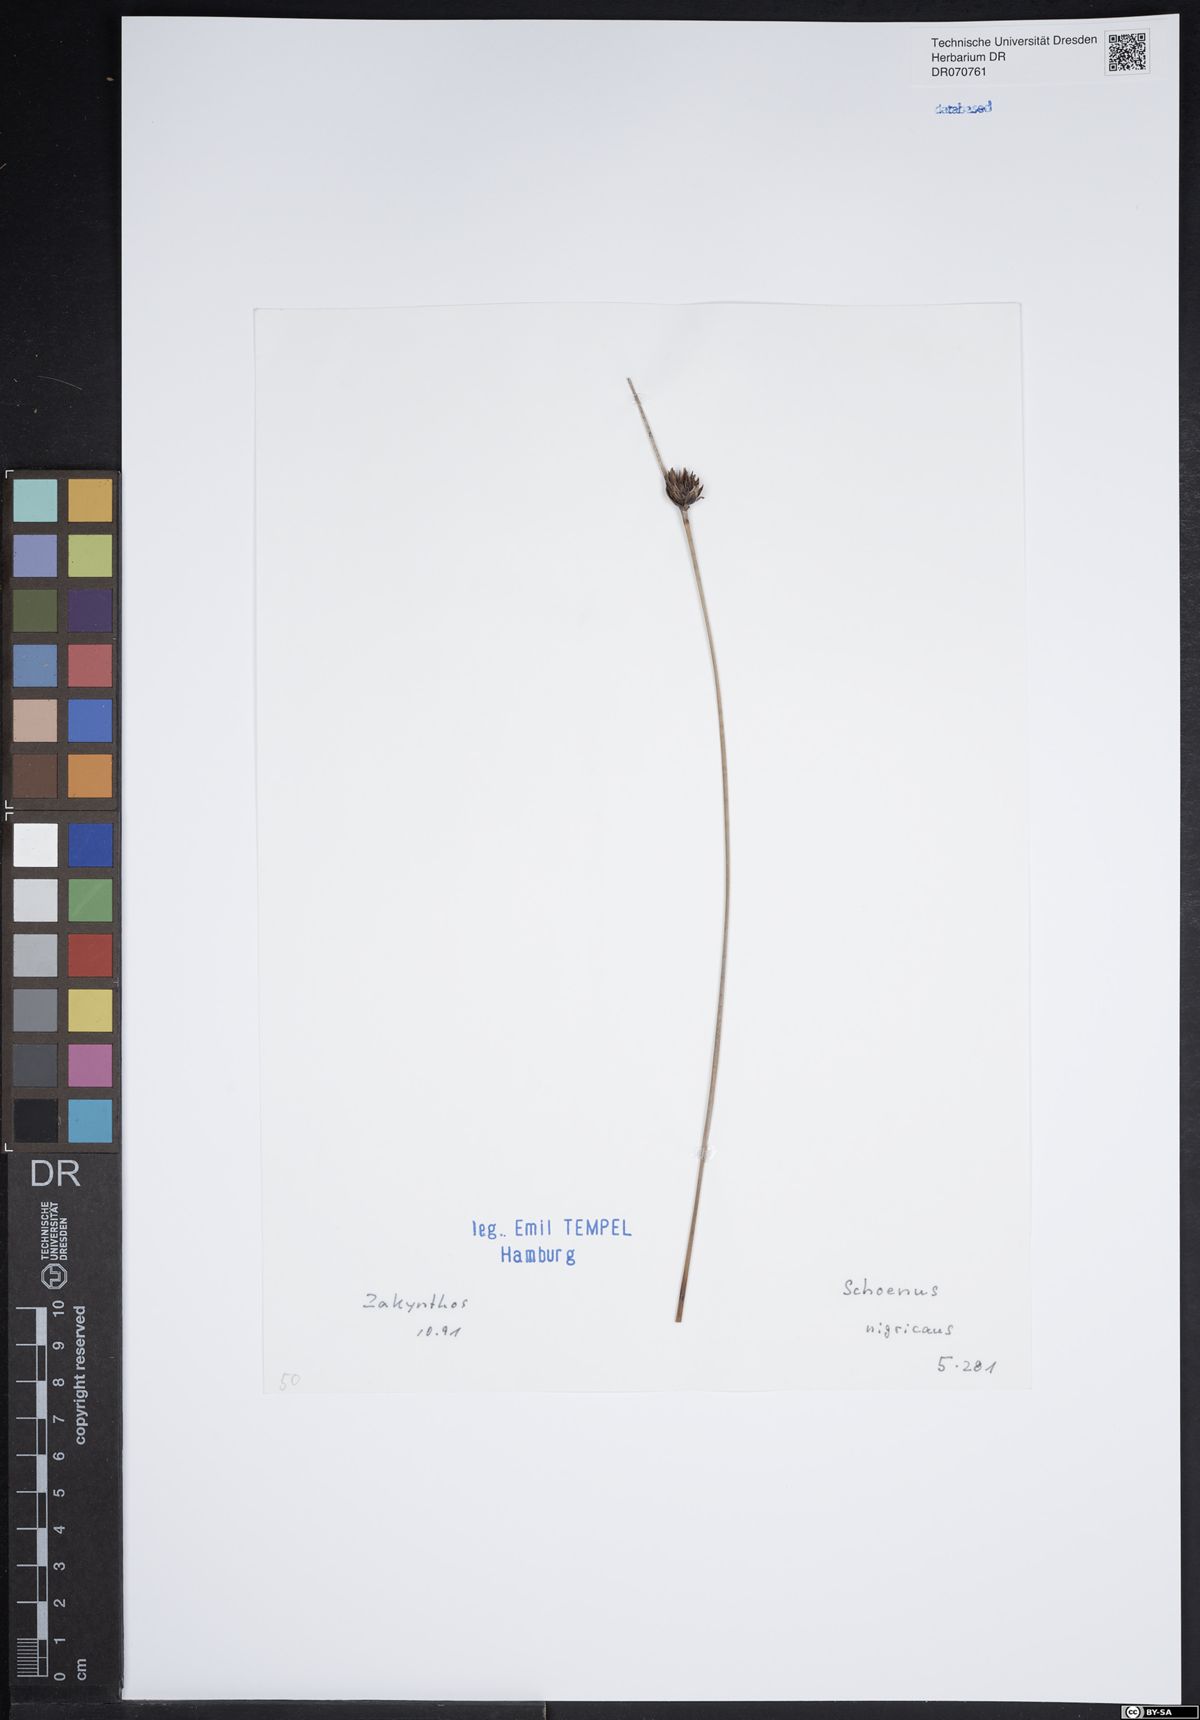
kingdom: Plantae
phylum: Tracheophyta
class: Liliopsida
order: Poales
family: Cyperaceae
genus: Schoenus
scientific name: Schoenus nigricans
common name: Black bog-rush
